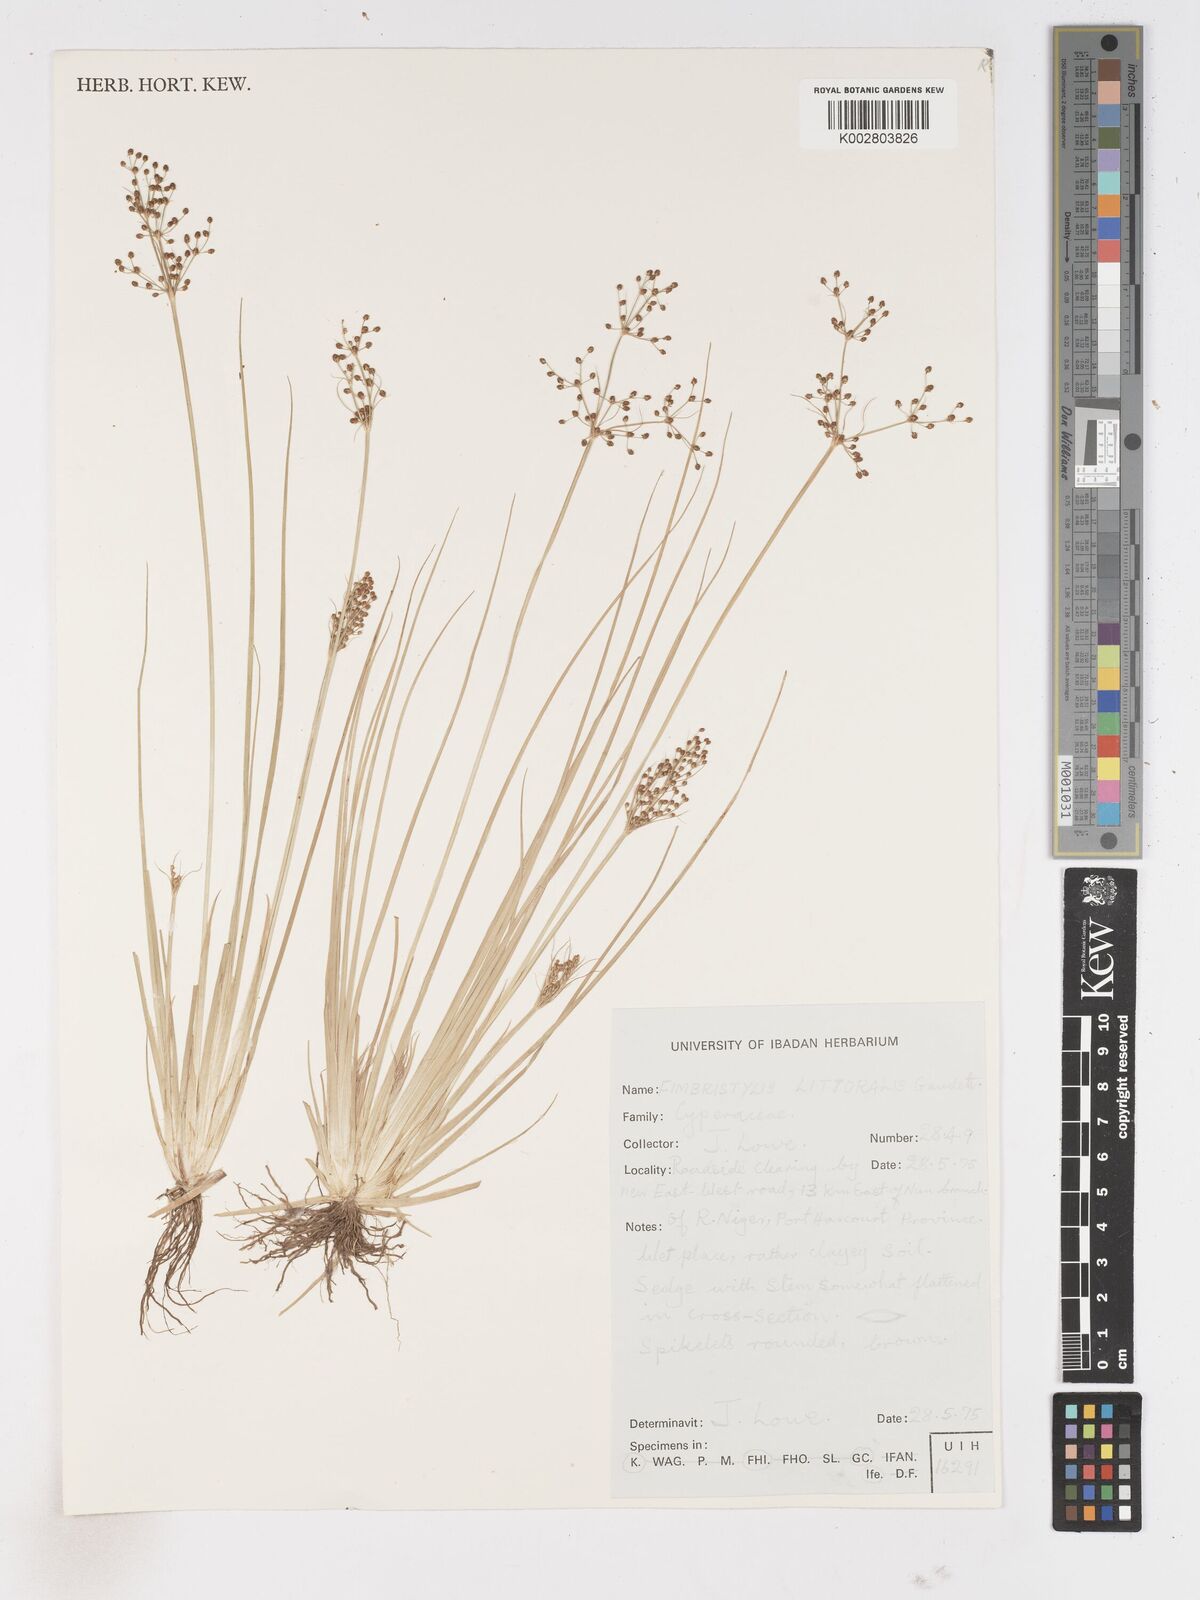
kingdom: Plantae
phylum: Tracheophyta
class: Liliopsida
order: Poales
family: Cyperaceae
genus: Fimbristylis
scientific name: Fimbristylis littoralis
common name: Fimbry
